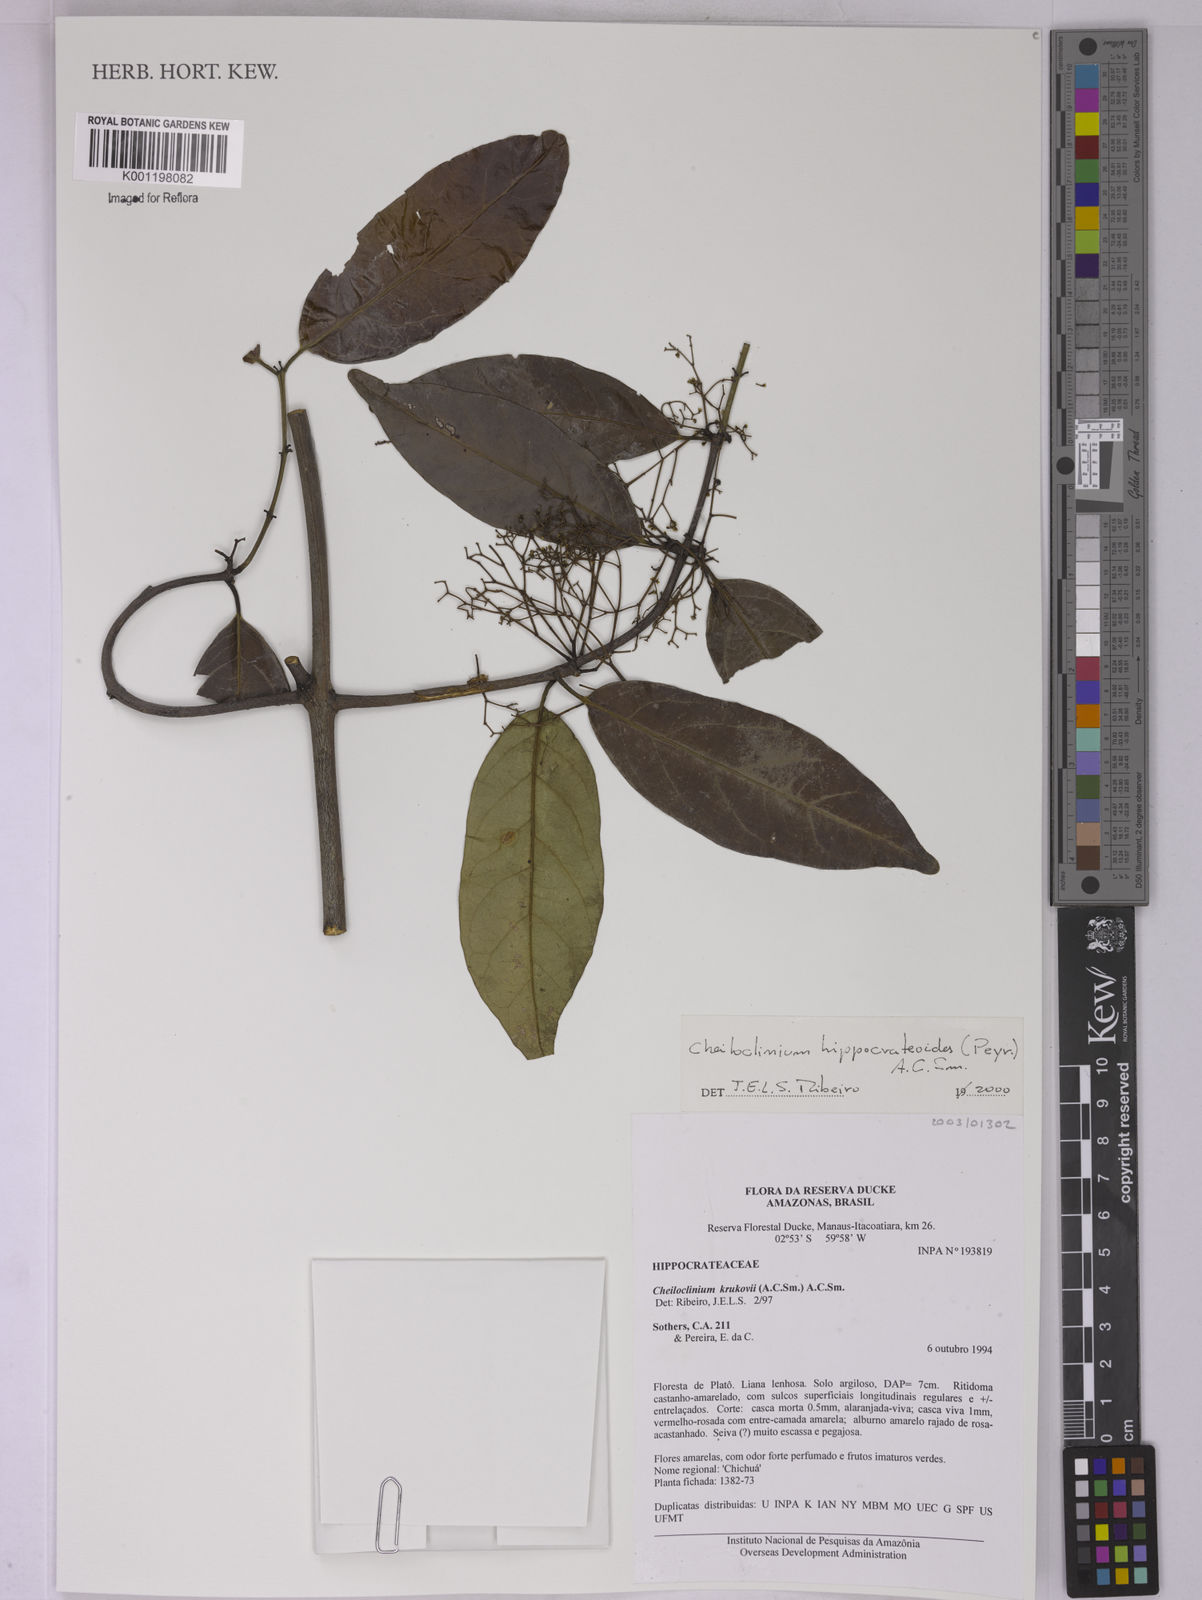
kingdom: Plantae
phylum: Tracheophyta
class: Magnoliopsida
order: Celastrales
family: Celastraceae
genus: Cheiloclinium
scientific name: Cheiloclinium hippocrateoides
